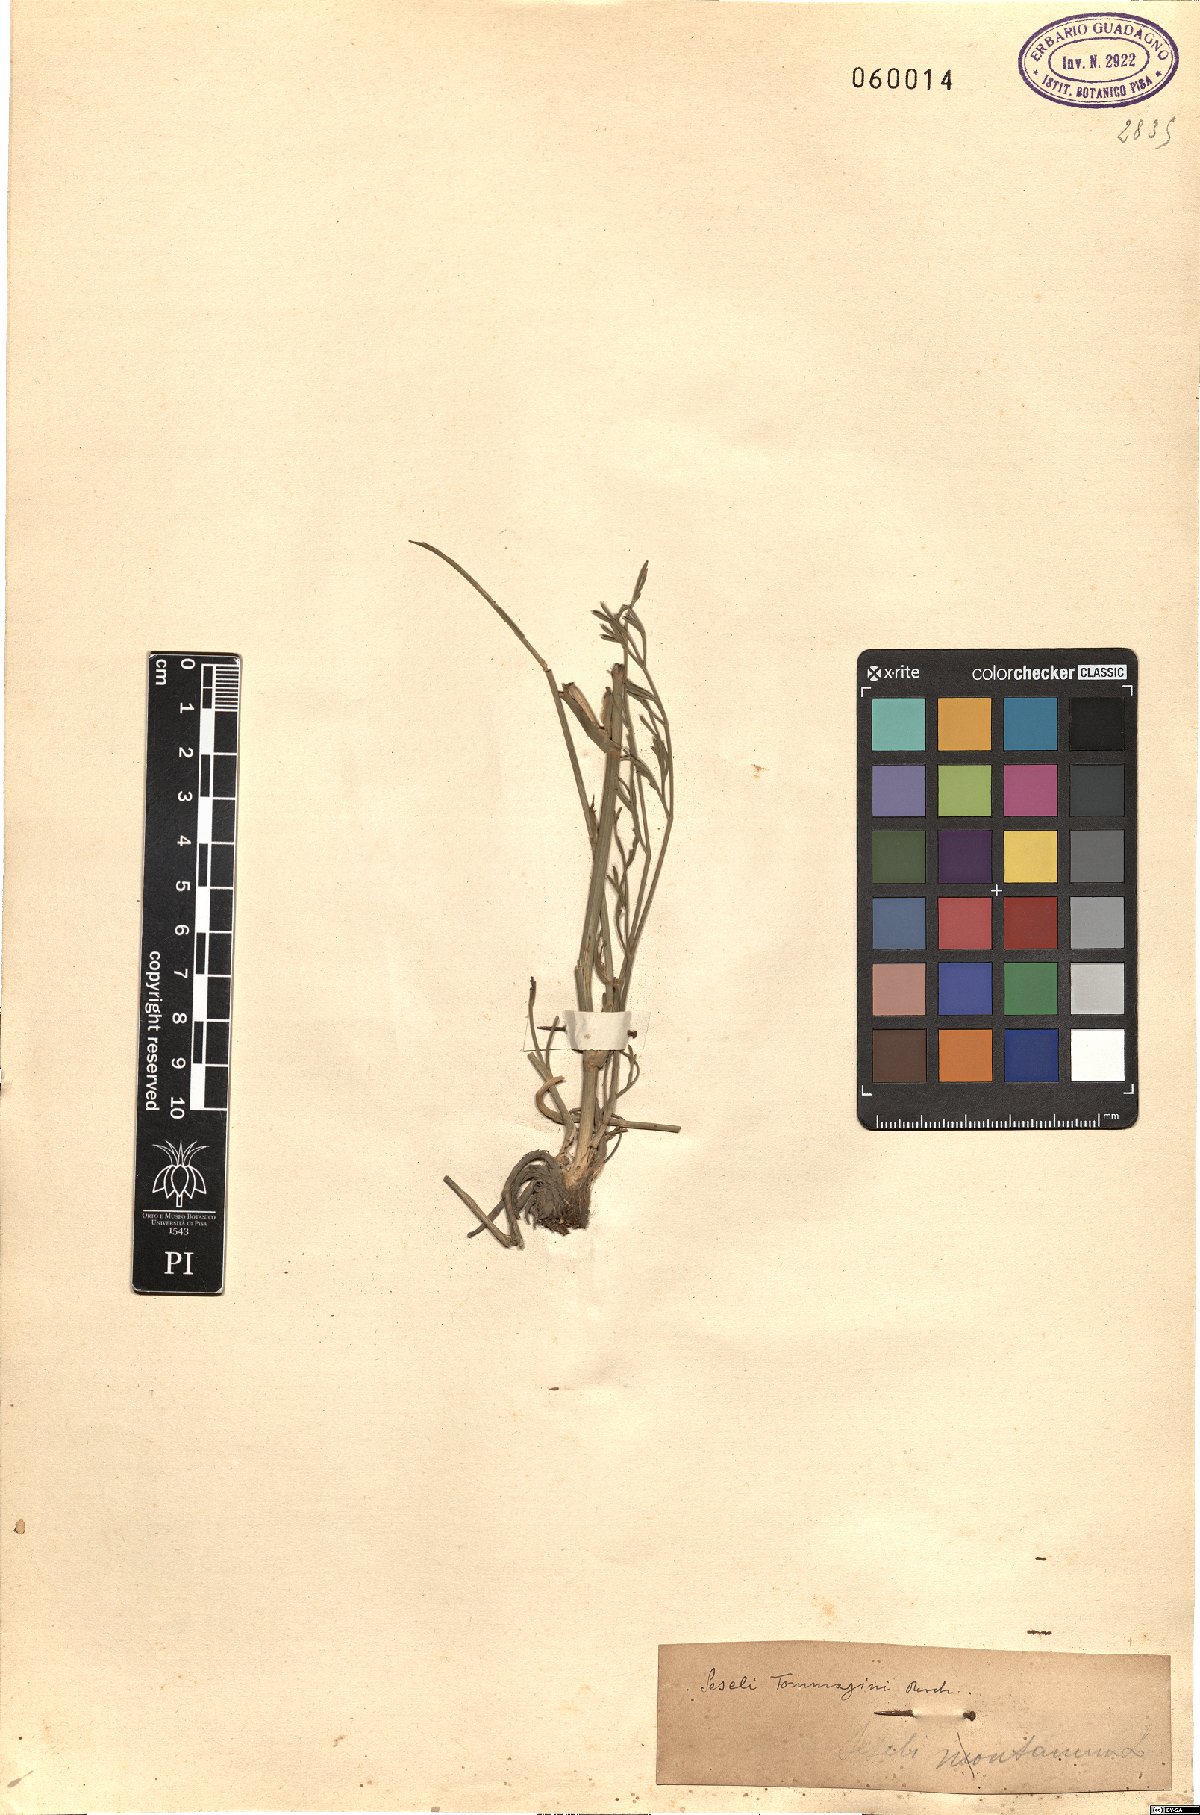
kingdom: Plantae
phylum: Tracheophyta
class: Magnoliopsida
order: Apiales
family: Apiaceae
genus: Seseli
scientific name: Seseli montanum
